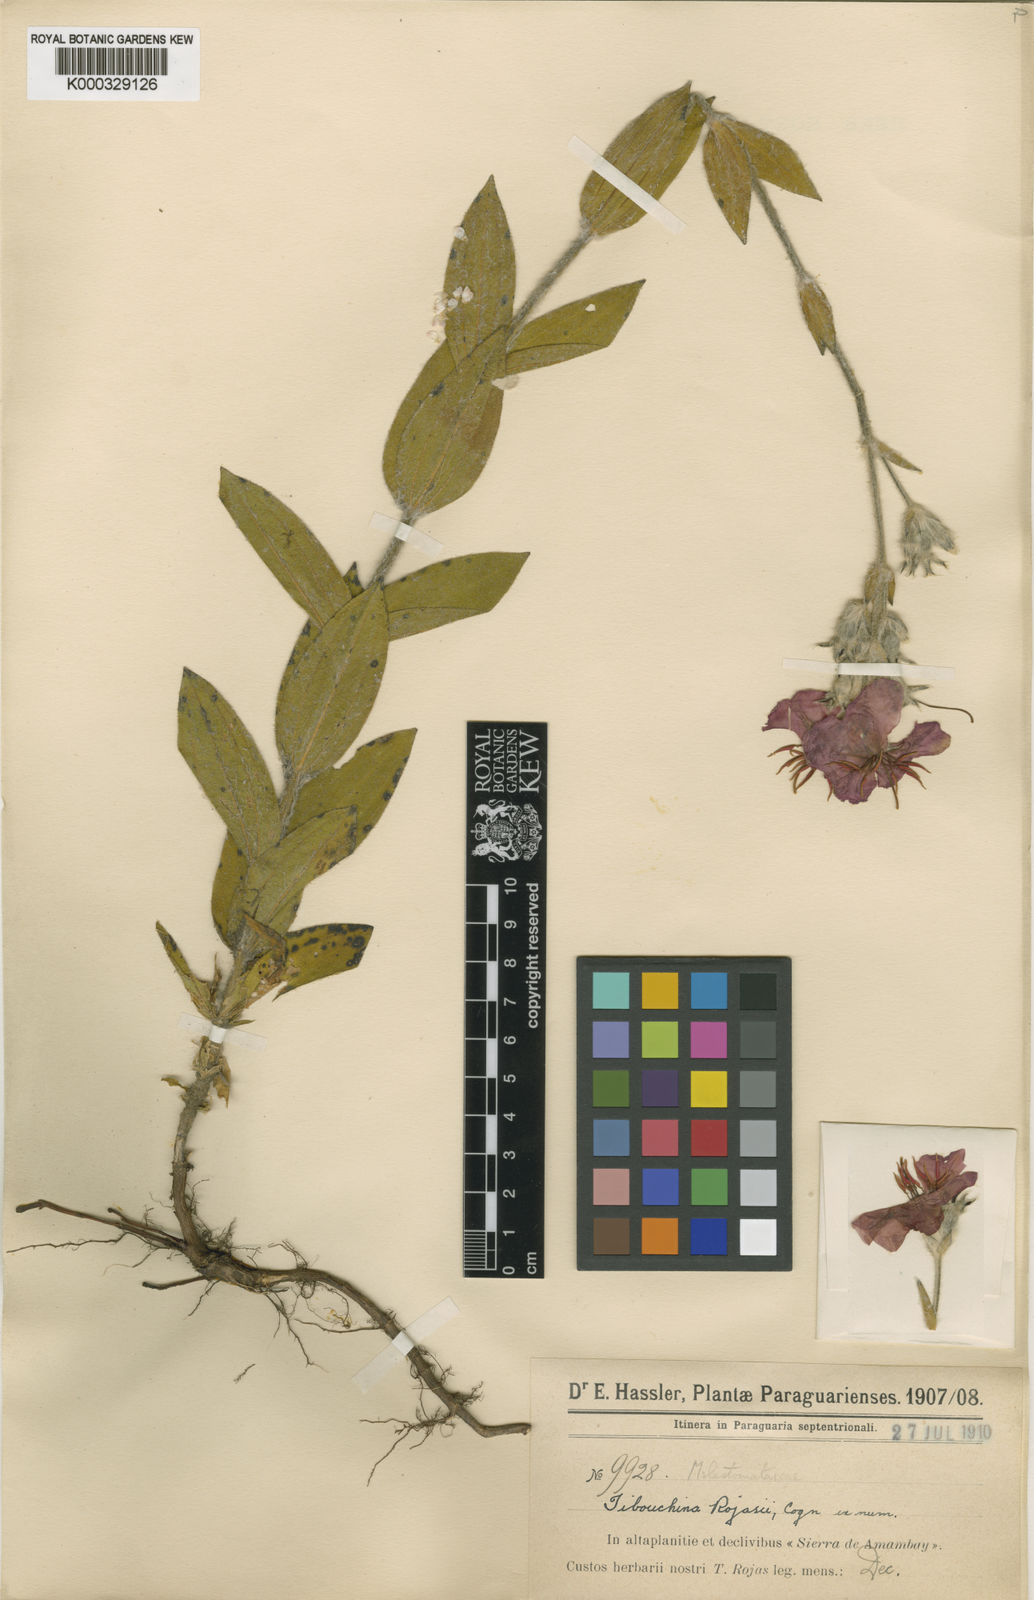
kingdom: Plantae
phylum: Tracheophyta
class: Magnoliopsida
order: Myrtales
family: Melastomataceae
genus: Chaetogastra
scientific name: Chaetogastra hassleri
